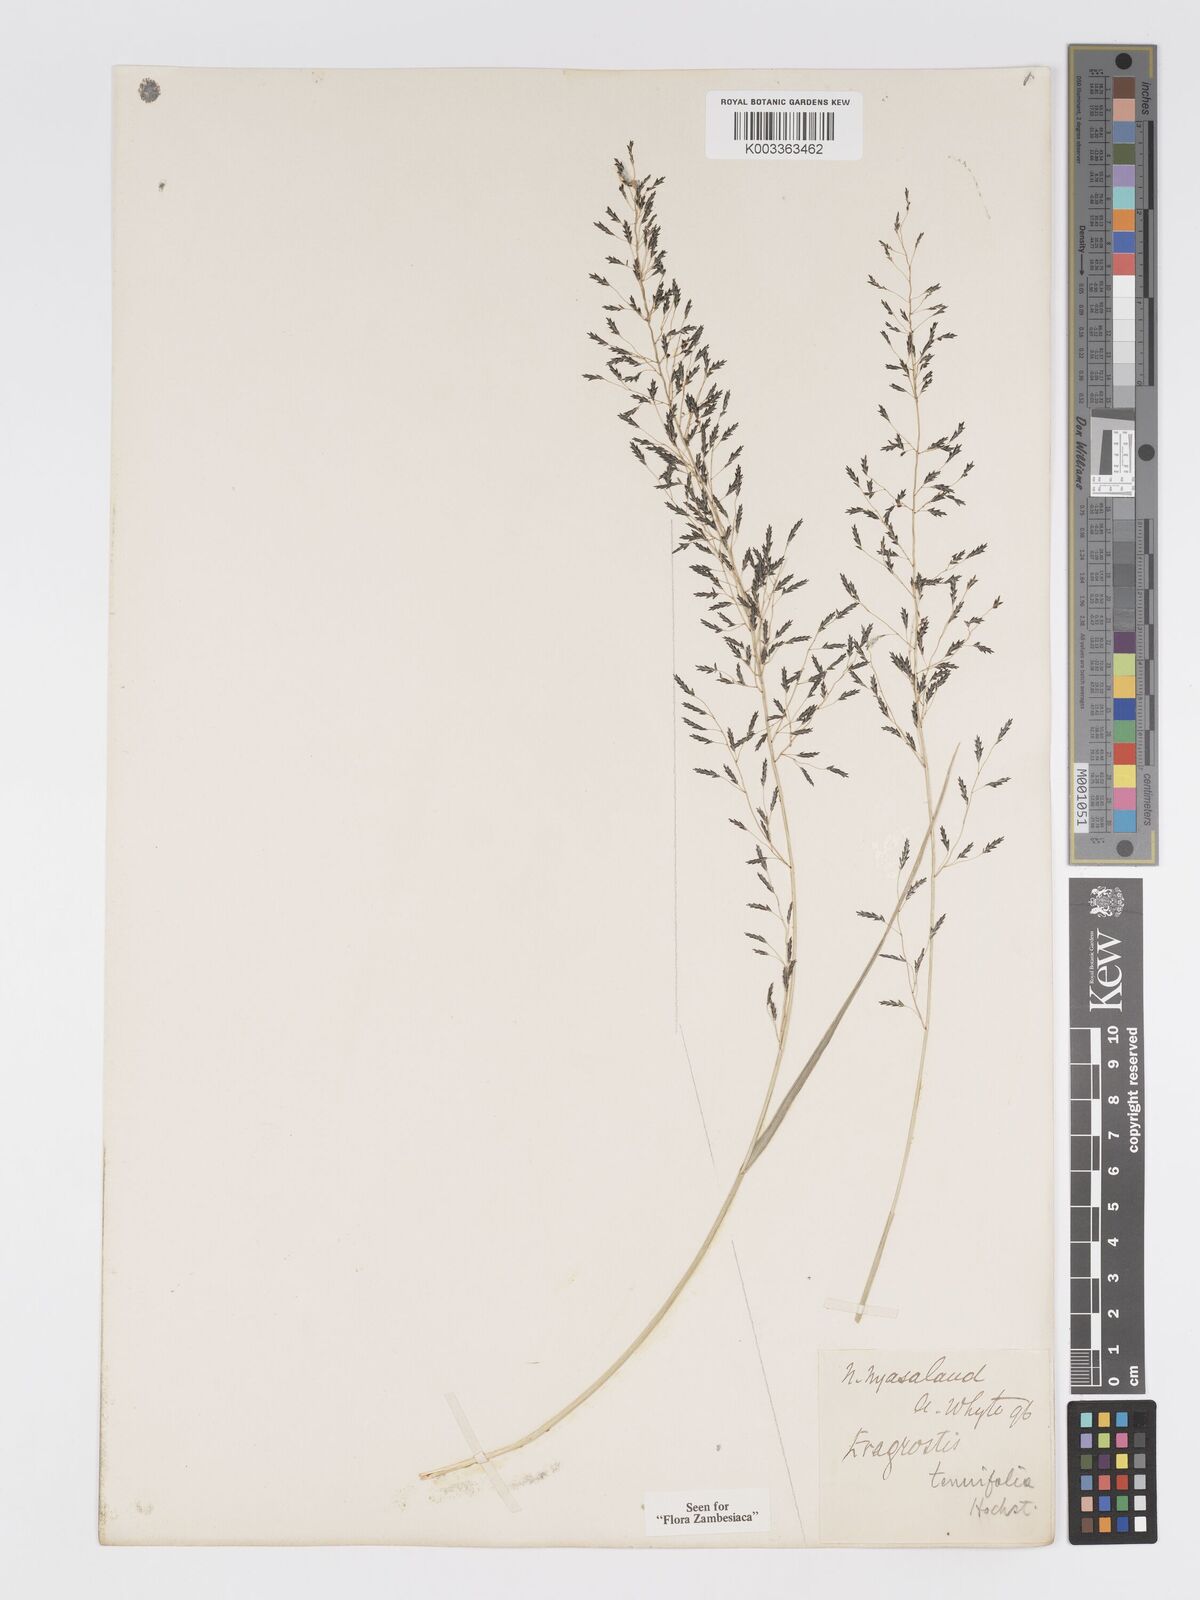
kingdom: Plantae
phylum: Tracheophyta
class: Liliopsida
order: Poales
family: Poaceae
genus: Eragrostis
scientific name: Eragrostis tenuifolia
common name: Elastic grass
